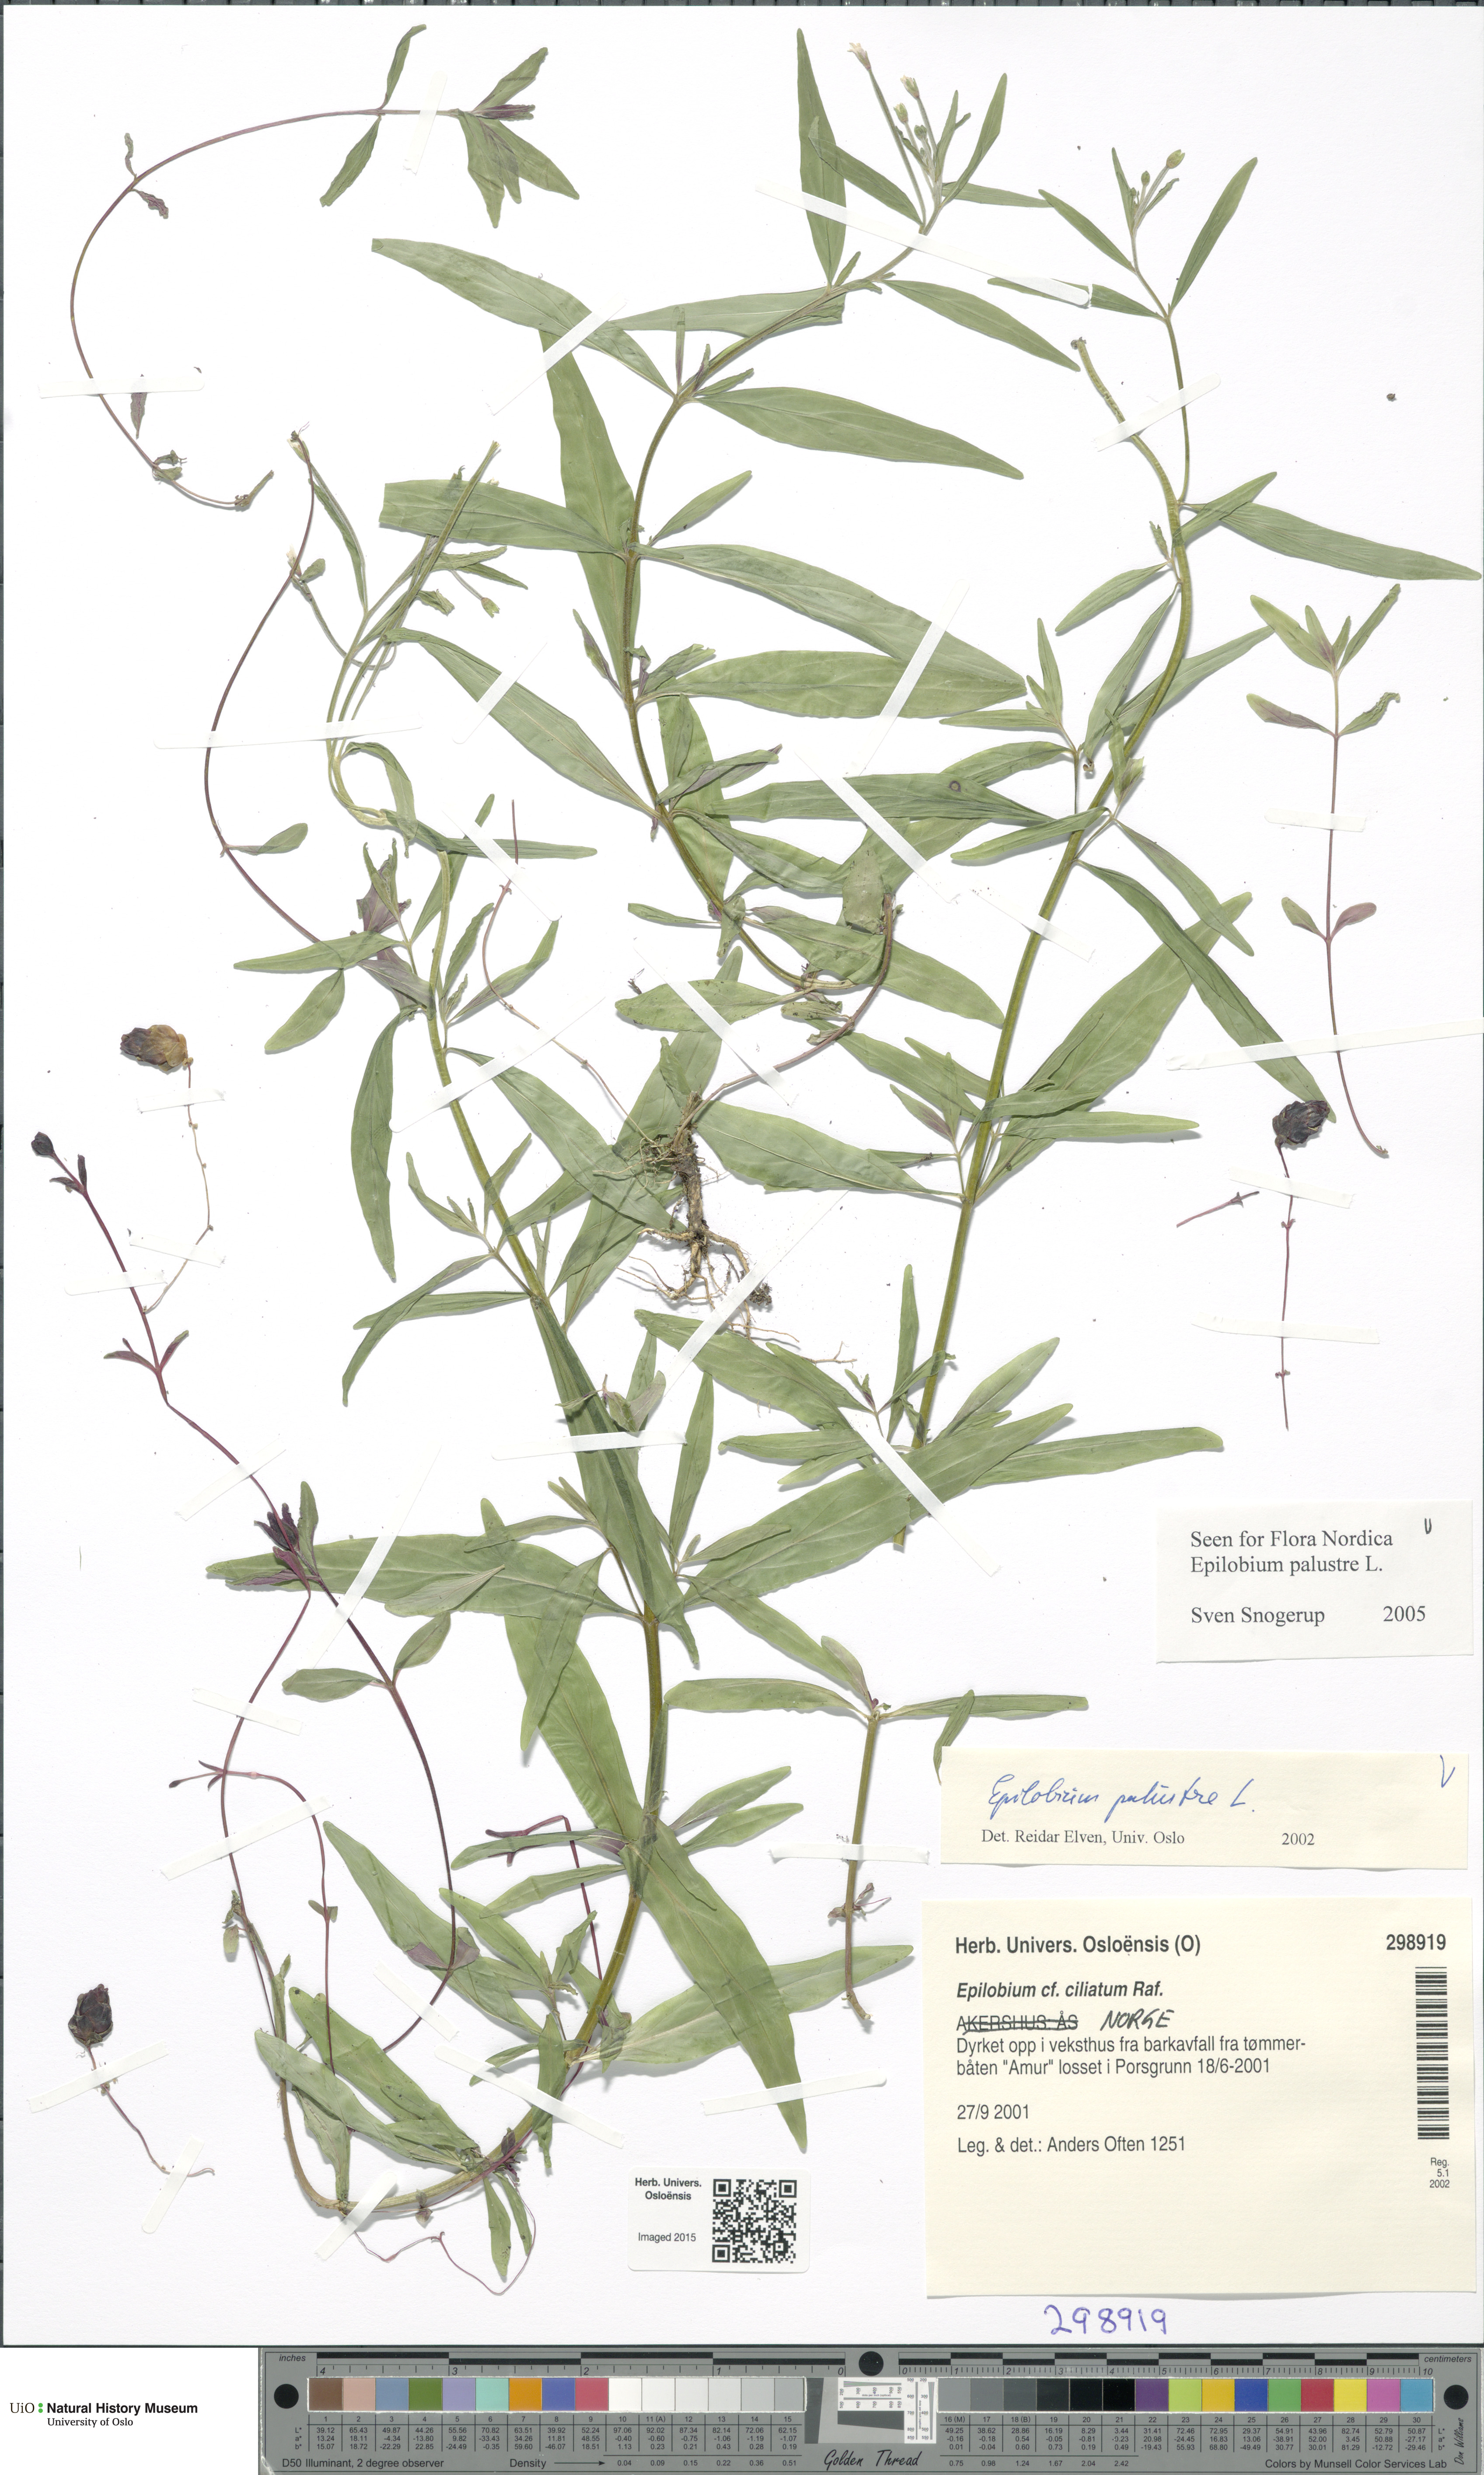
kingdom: Plantae
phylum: Tracheophyta
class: Magnoliopsida
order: Myrtales
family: Onagraceae
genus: Epilobium
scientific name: Epilobium palustre
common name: Marsh willowherb
